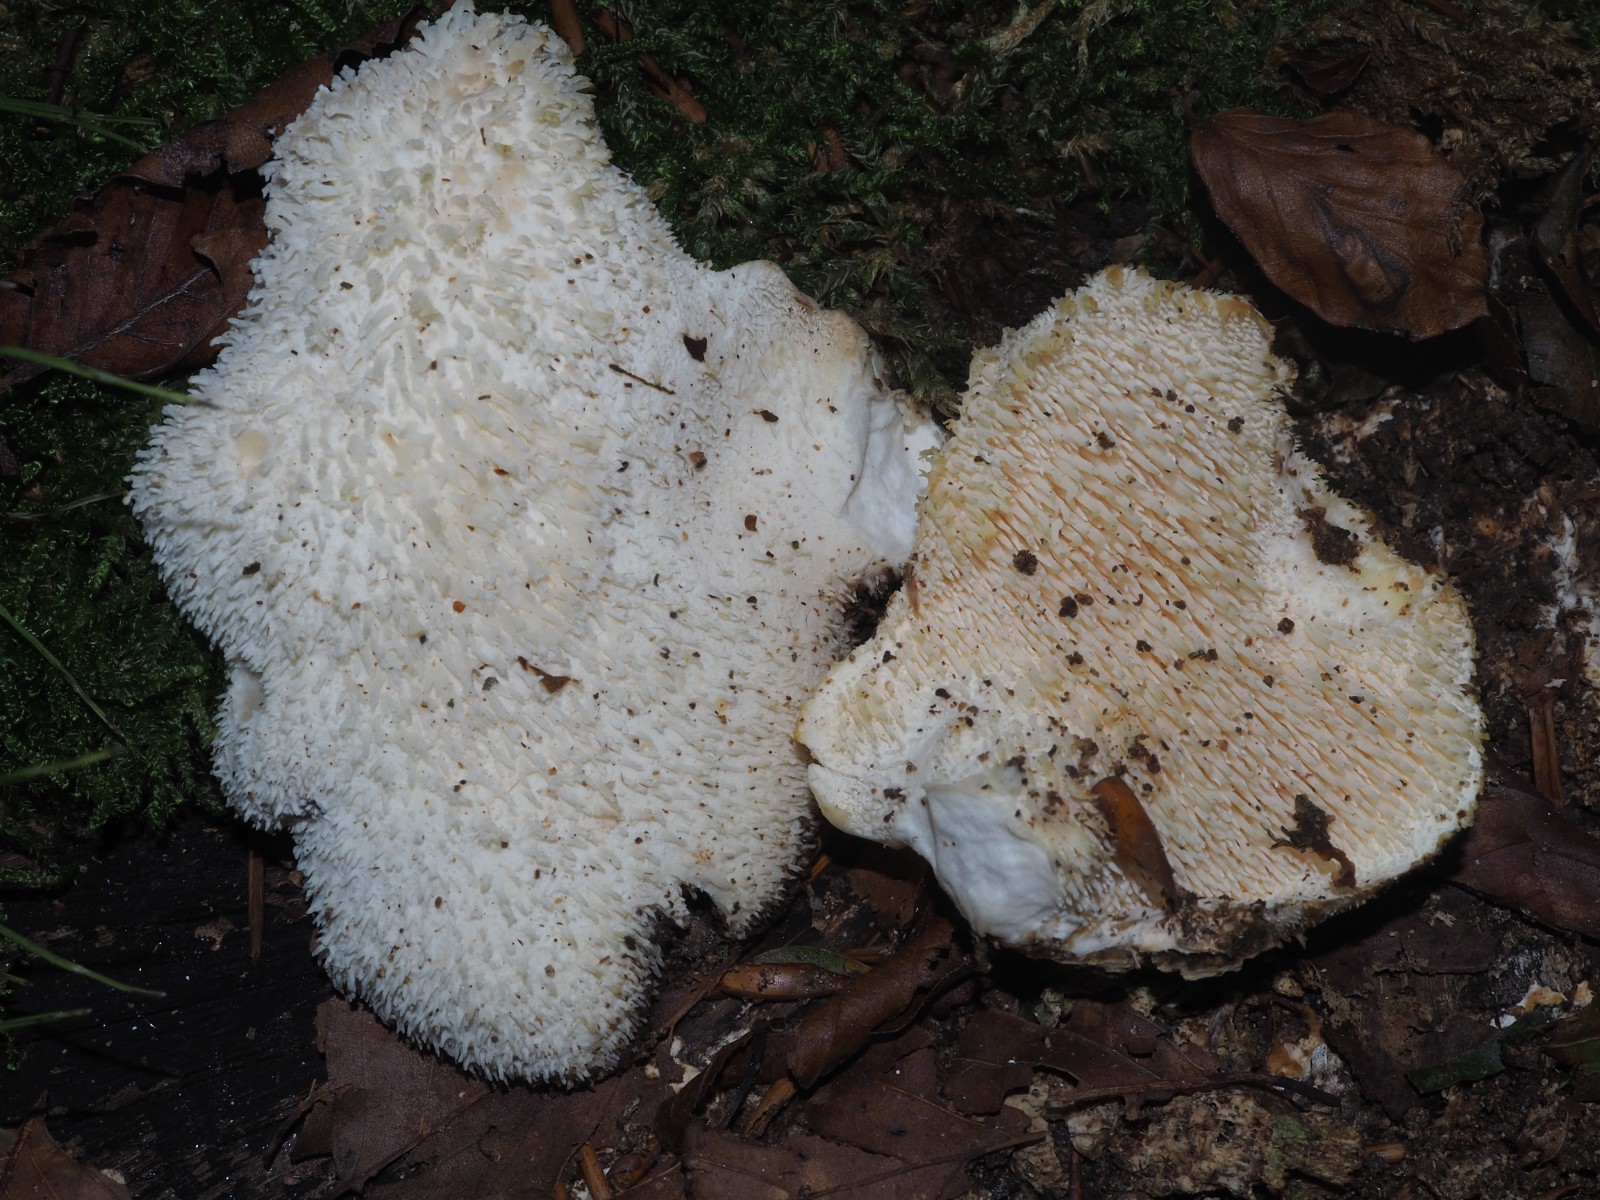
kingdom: Fungi
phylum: Basidiomycota
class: Agaricomycetes
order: Russulales
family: Hericiaceae
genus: Hericium
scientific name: Hericium cirrhatum
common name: børstepigsvamp
